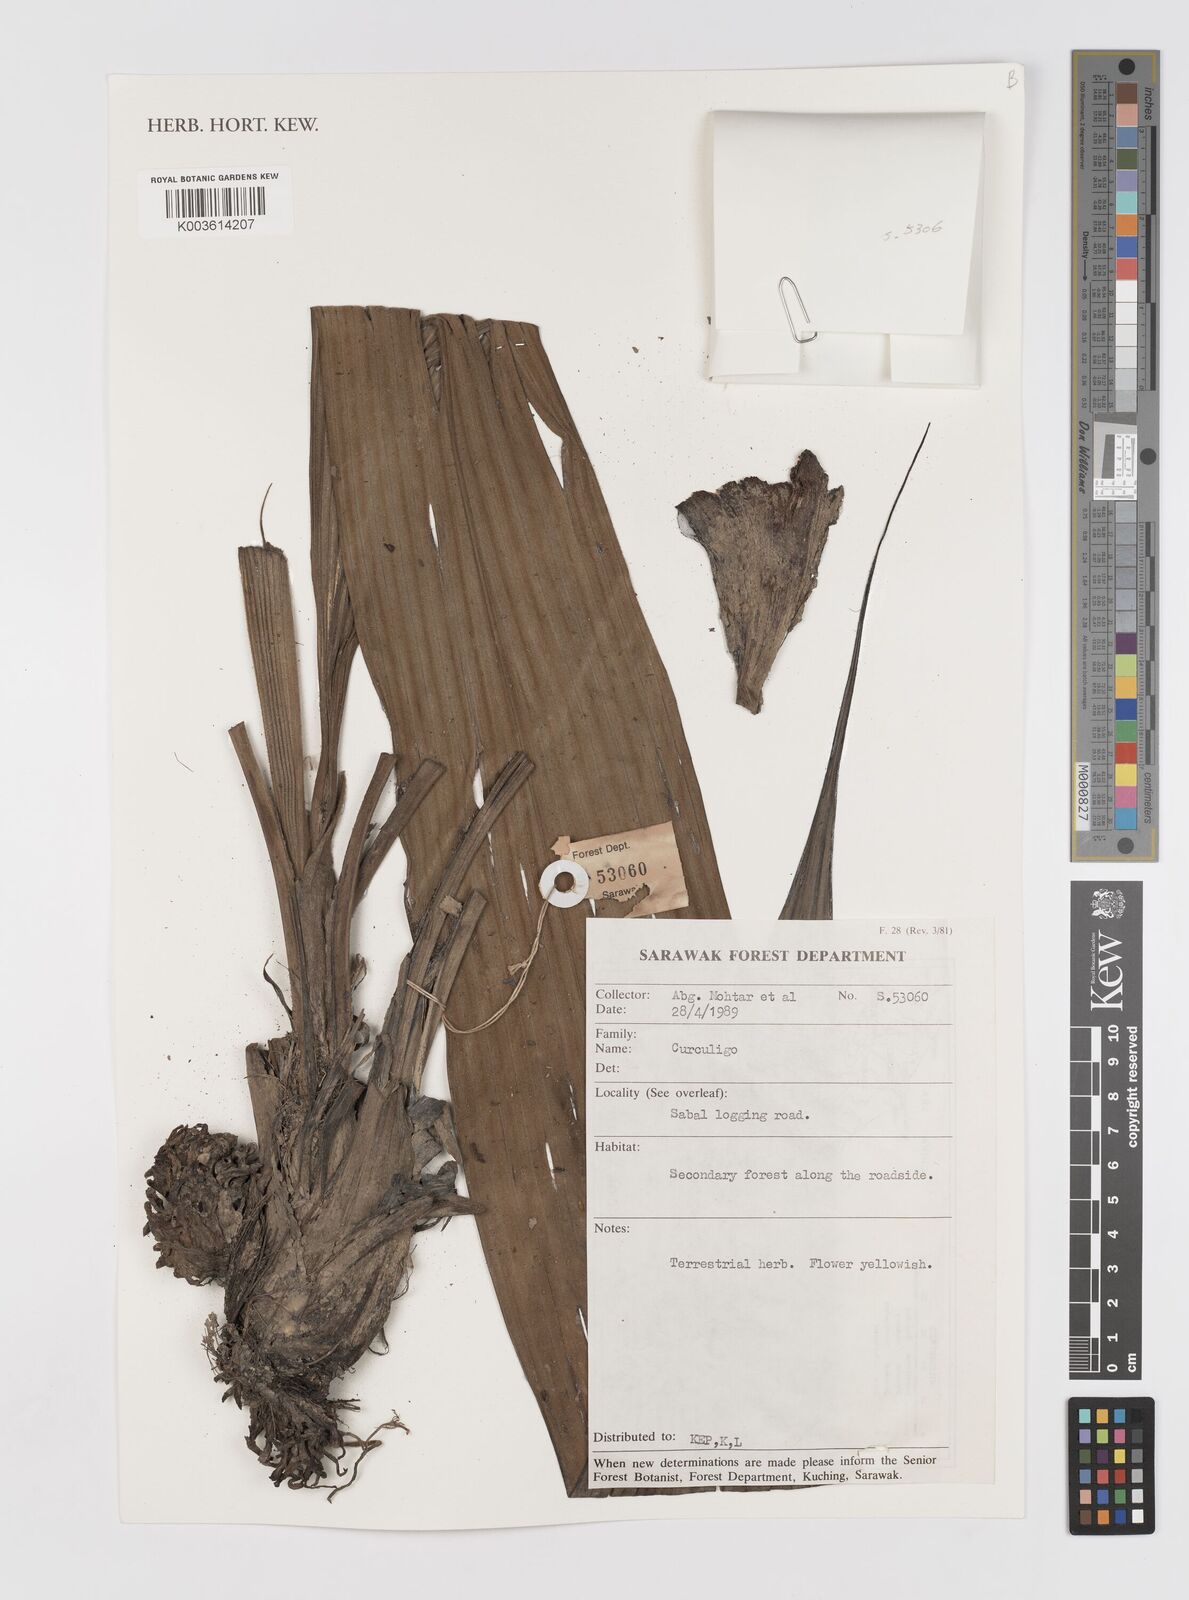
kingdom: Plantae
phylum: Tracheophyta
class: Liliopsida
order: Asparagales
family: Hypoxidaceae
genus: Curculigo
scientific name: Curculigo
